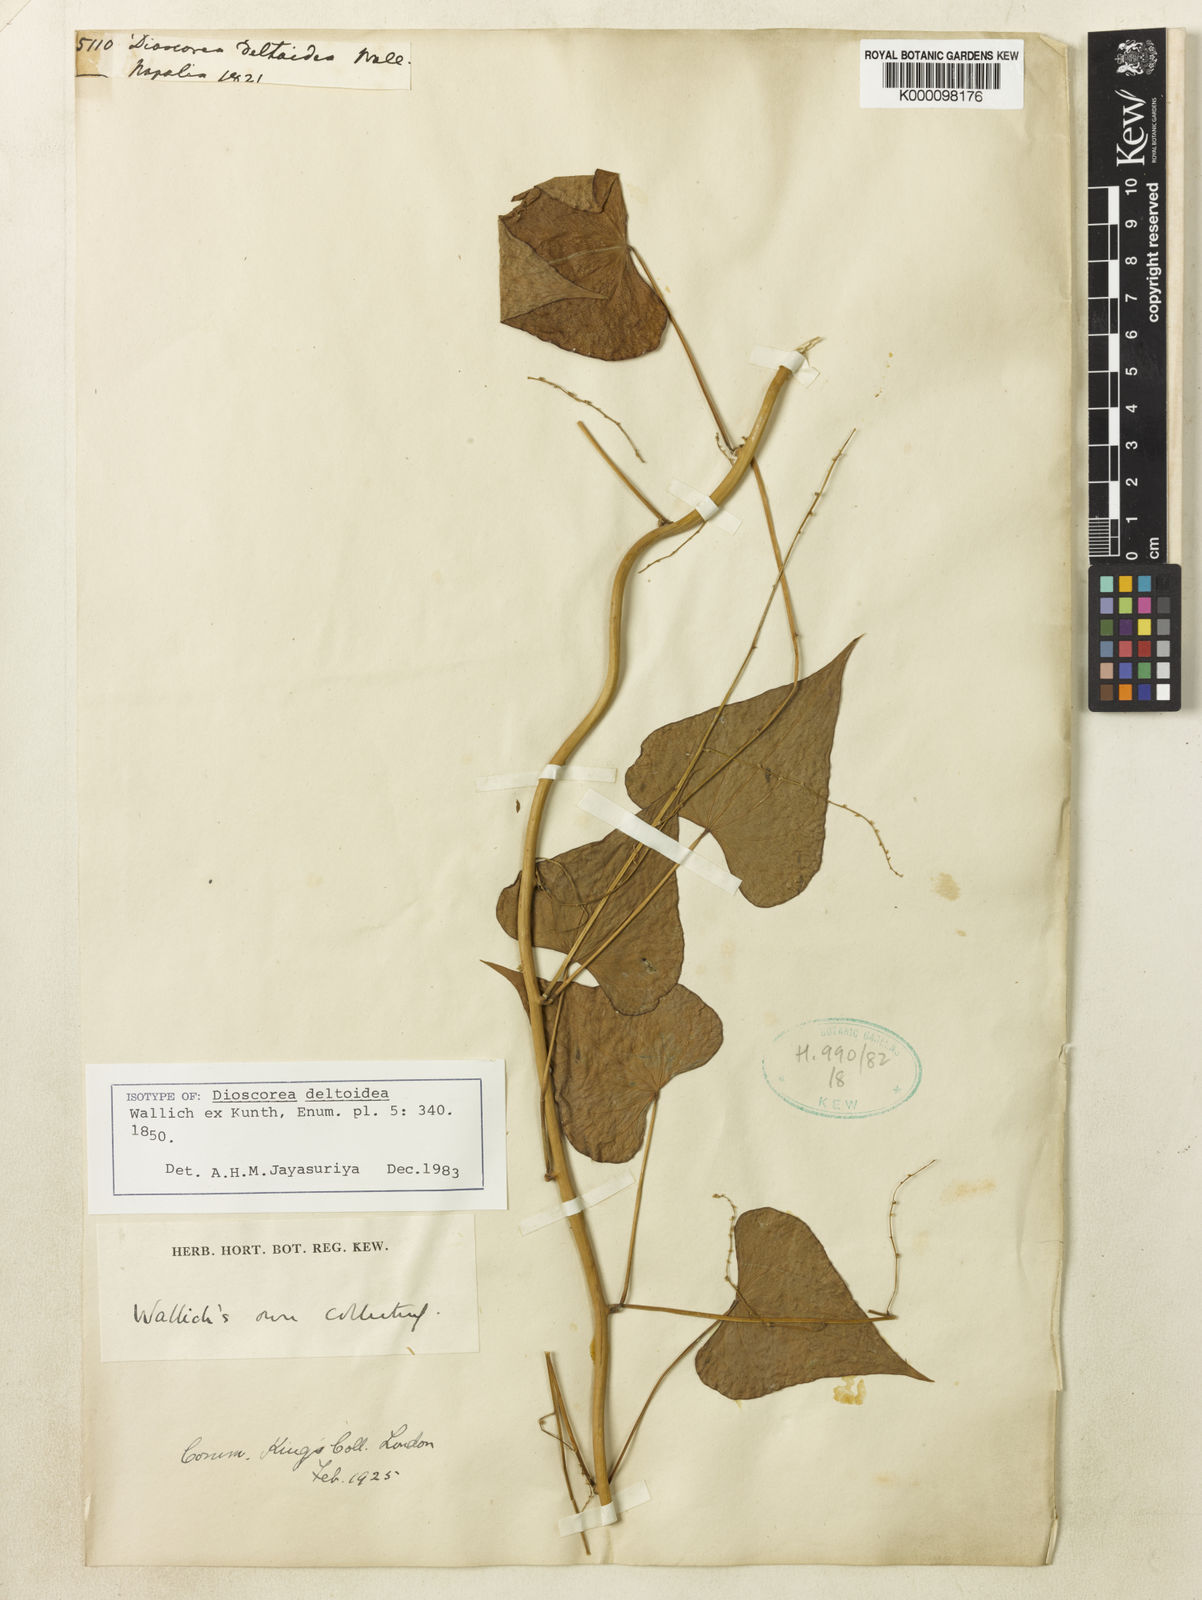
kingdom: Plantae
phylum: Tracheophyta
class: Liliopsida
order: Dioscoreales
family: Dioscoreaceae
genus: Dioscorea
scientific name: Dioscorea
